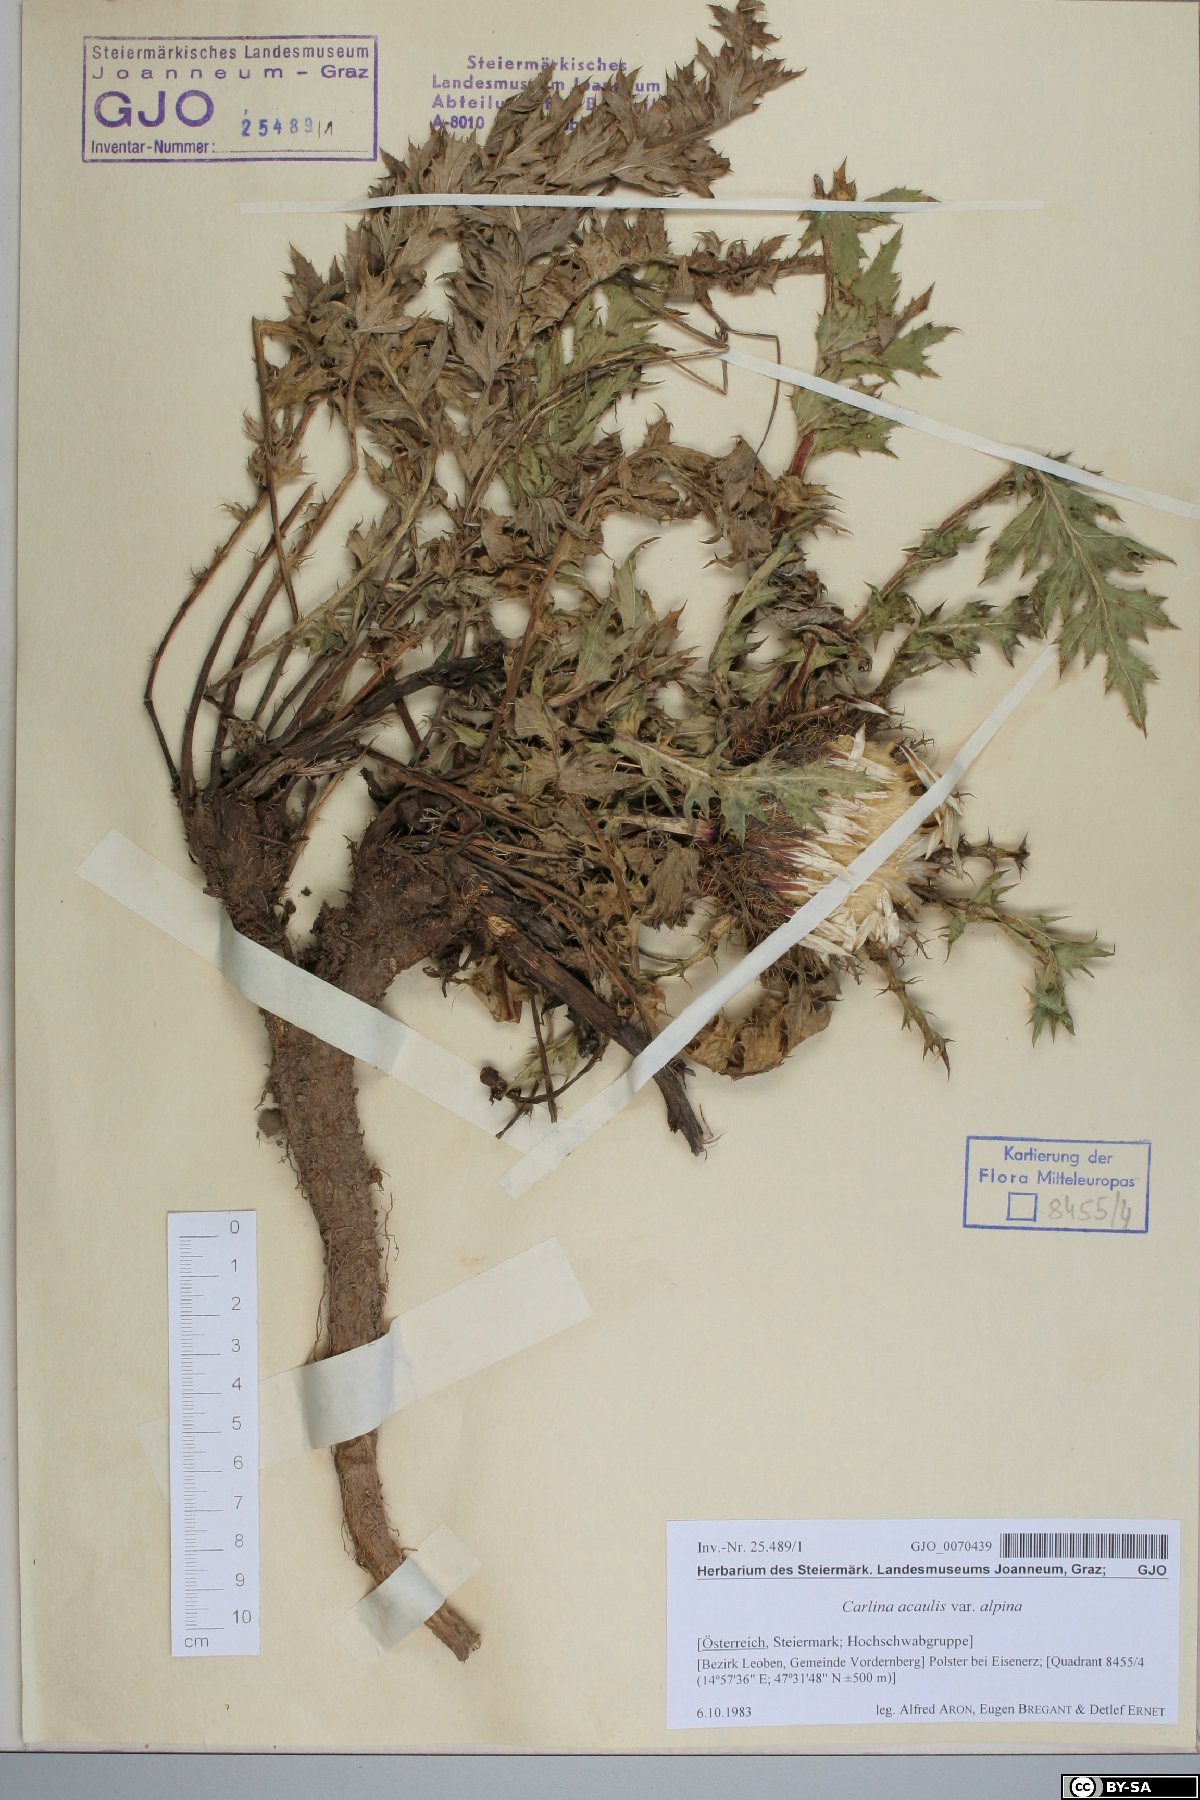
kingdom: Plantae
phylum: Tracheophyta
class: Magnoliopsida
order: Asterales
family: Asteraceae
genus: Carlina
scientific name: Carlina acaulis
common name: Stemless carline thistle
